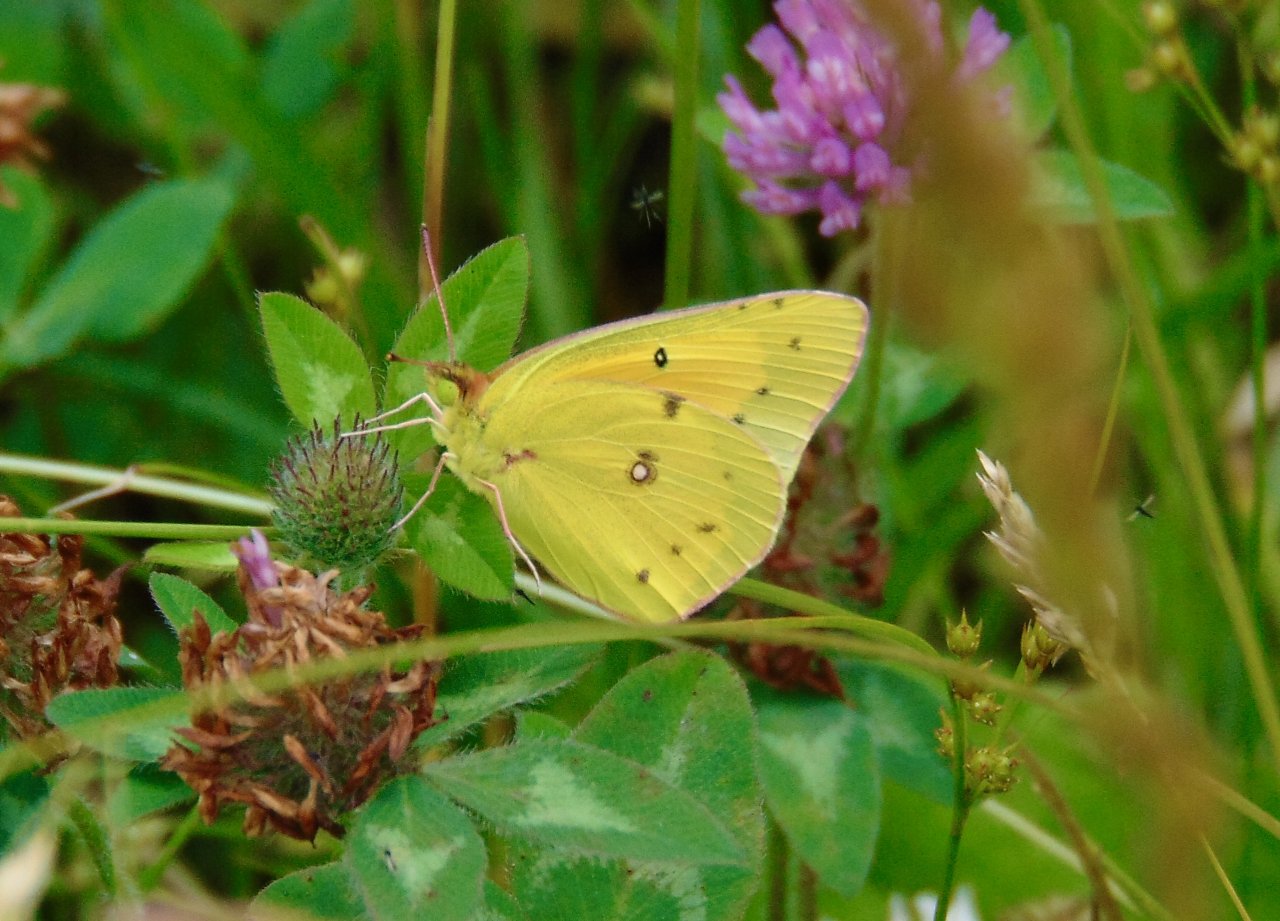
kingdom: Animalia
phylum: Arthropoda
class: Insecta
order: Lepidoptera
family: Pieridae
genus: Colias
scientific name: Colias eurytheme
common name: Orange Sulphur
